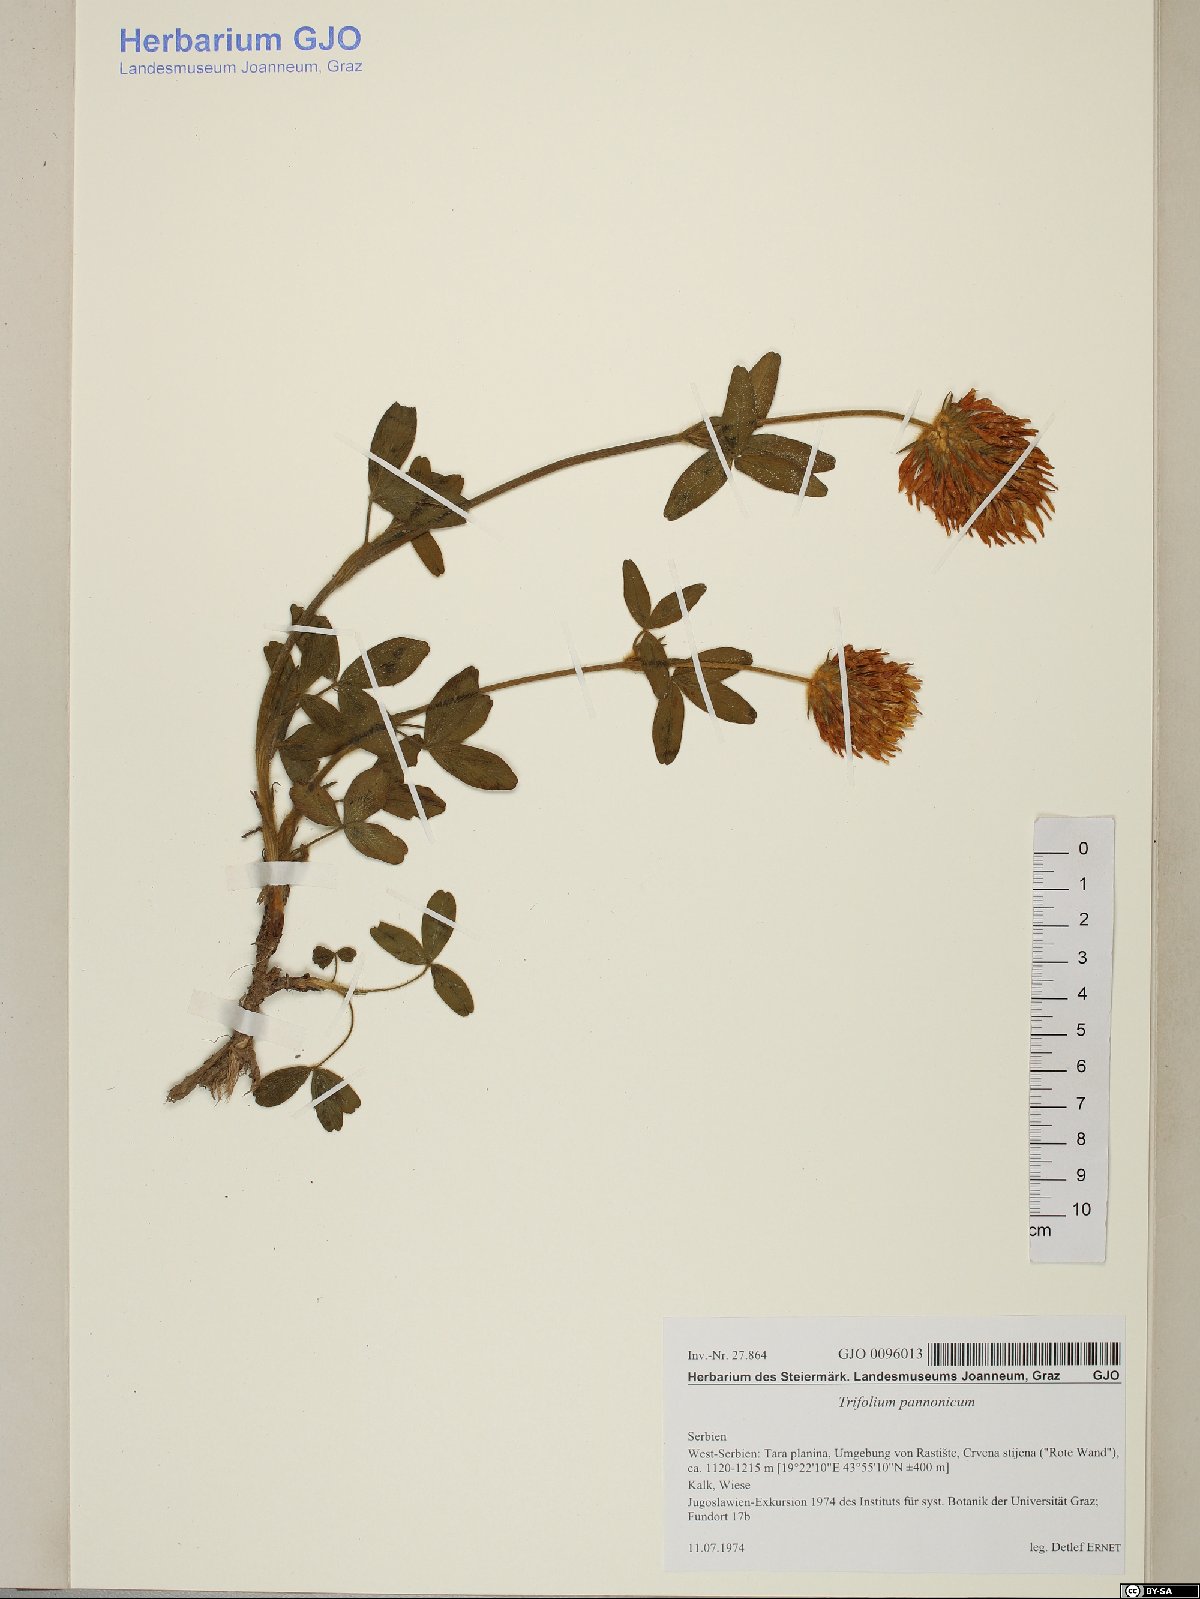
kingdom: Plantae
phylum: Tracheophyta
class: Magnoliopsida
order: Fabales
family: Fabaceae
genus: Trifolium
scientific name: Trifolium pannonicum
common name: Hungarian clover
